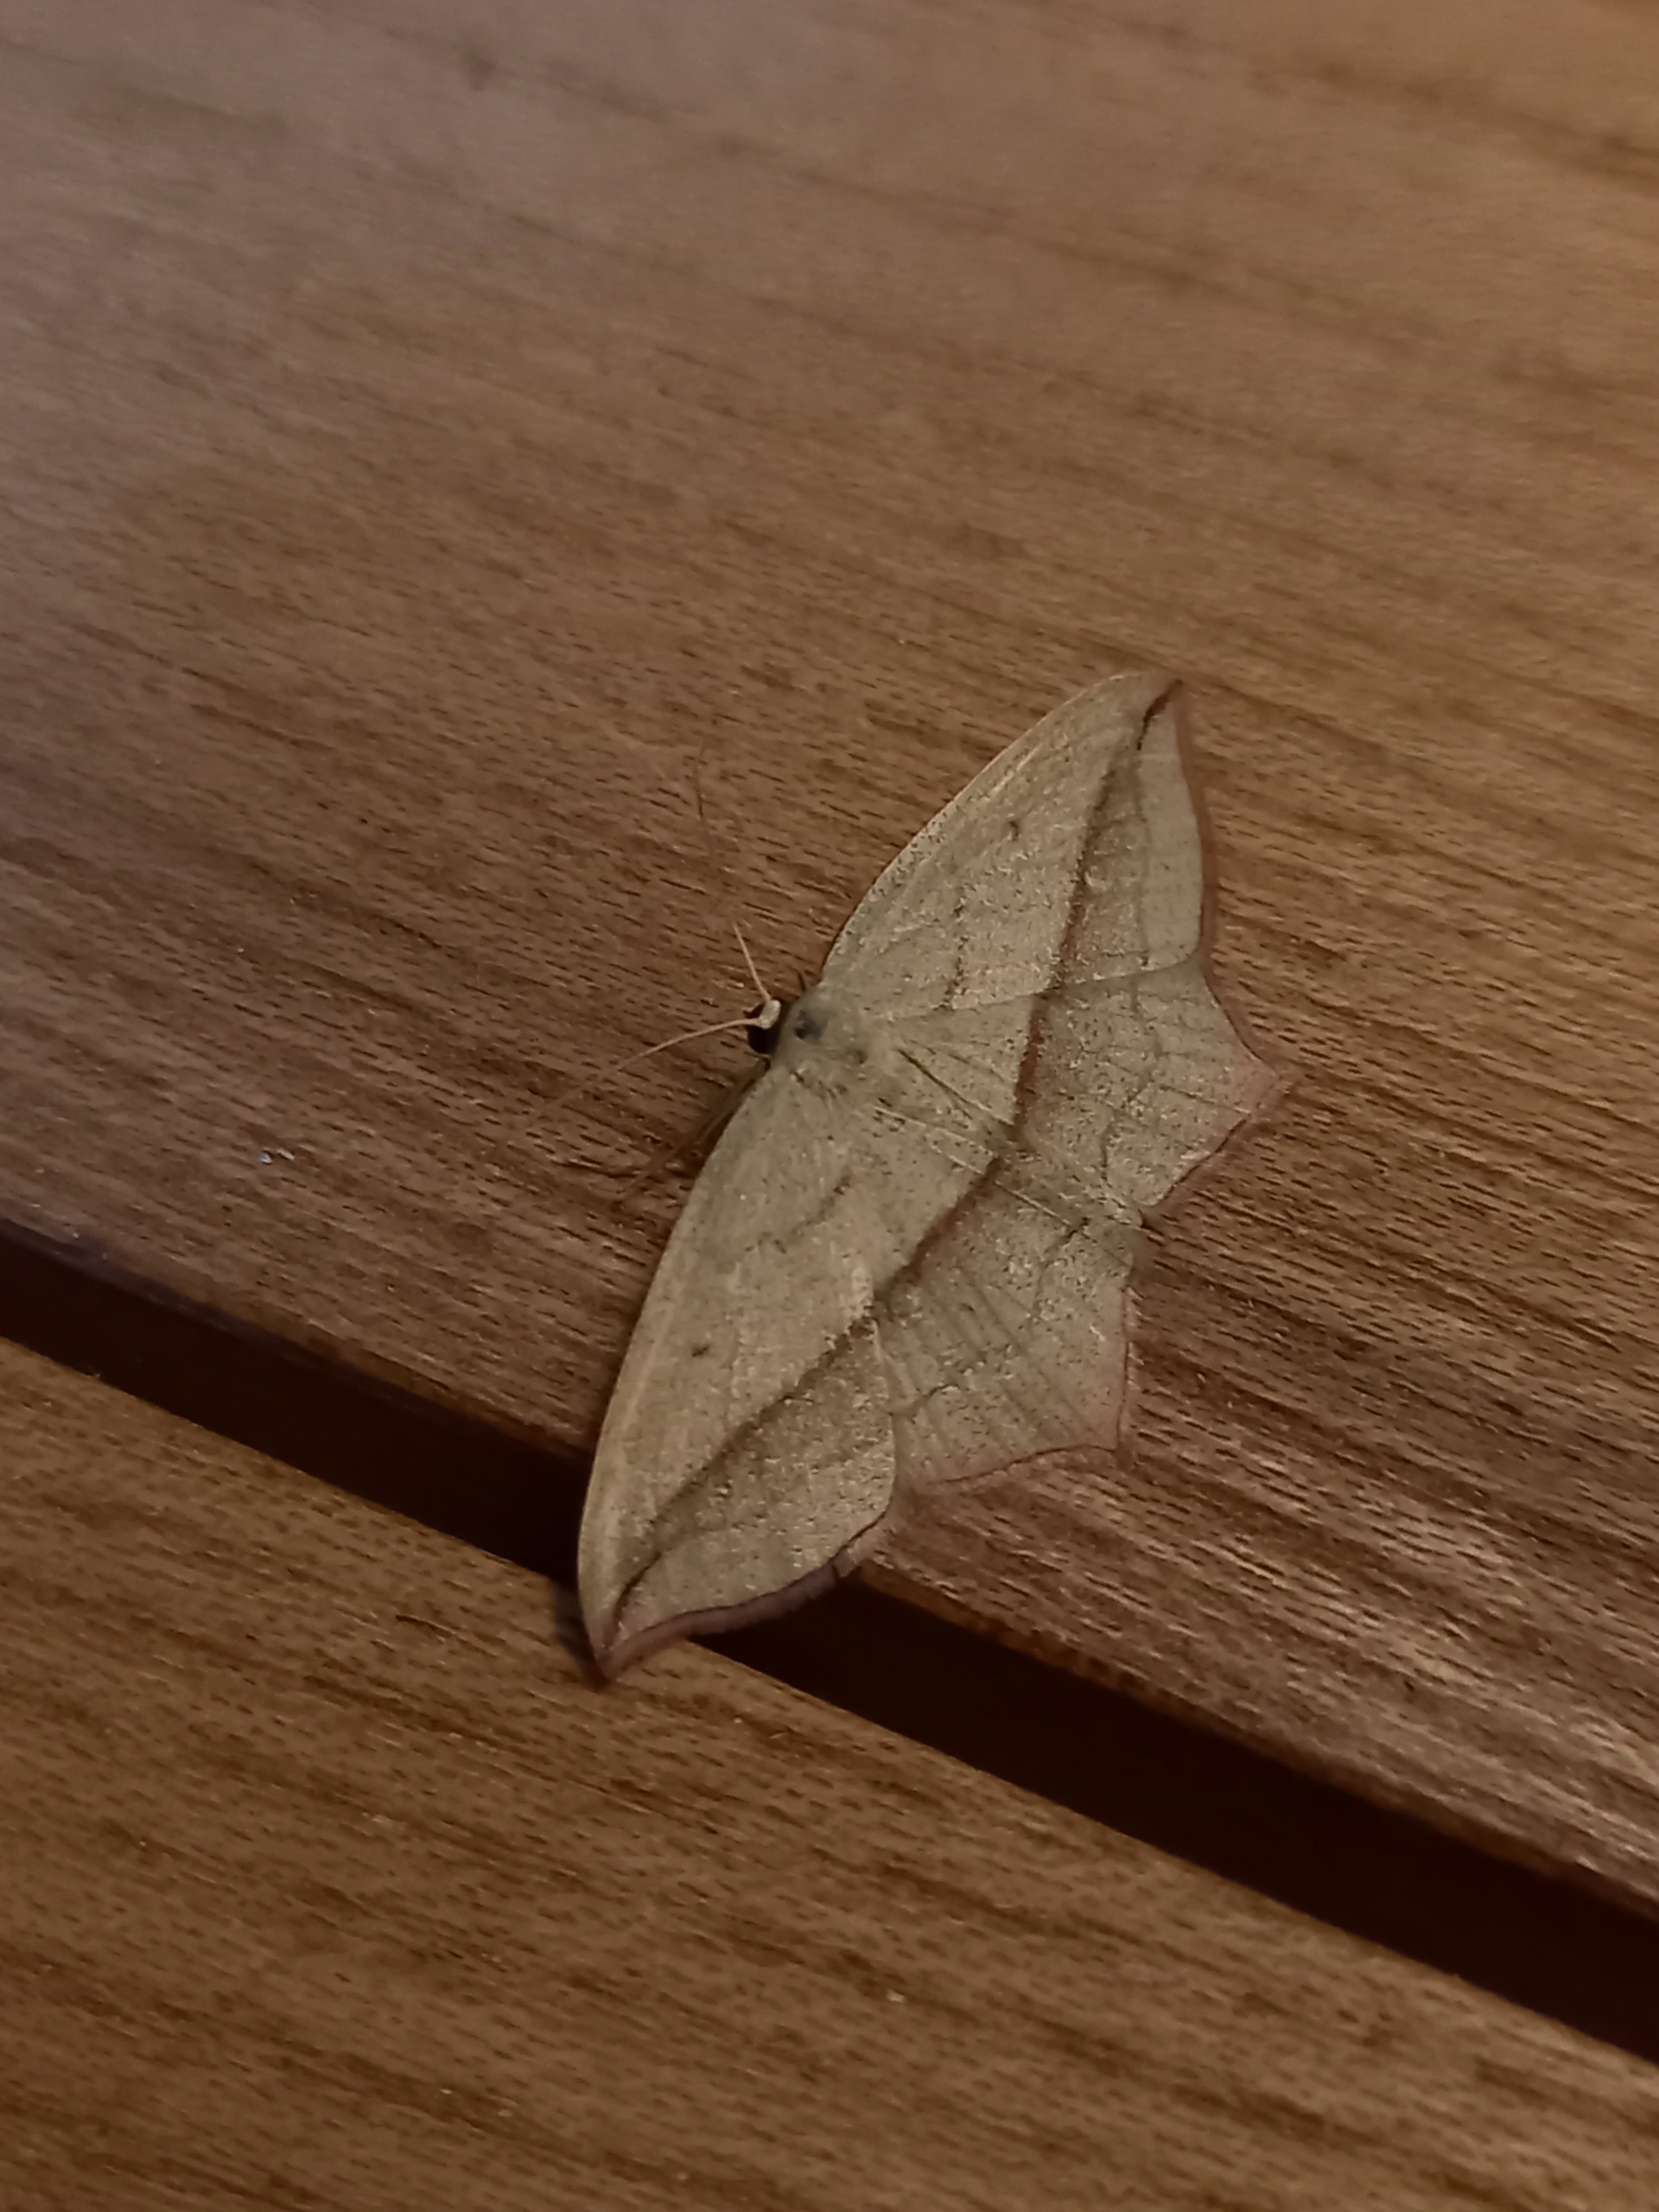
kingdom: Animalia
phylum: Arthropoda
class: Insecta
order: Lepidoptera
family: Geometridae
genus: Timandra
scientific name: Timandra comae
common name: Gul syremåler
